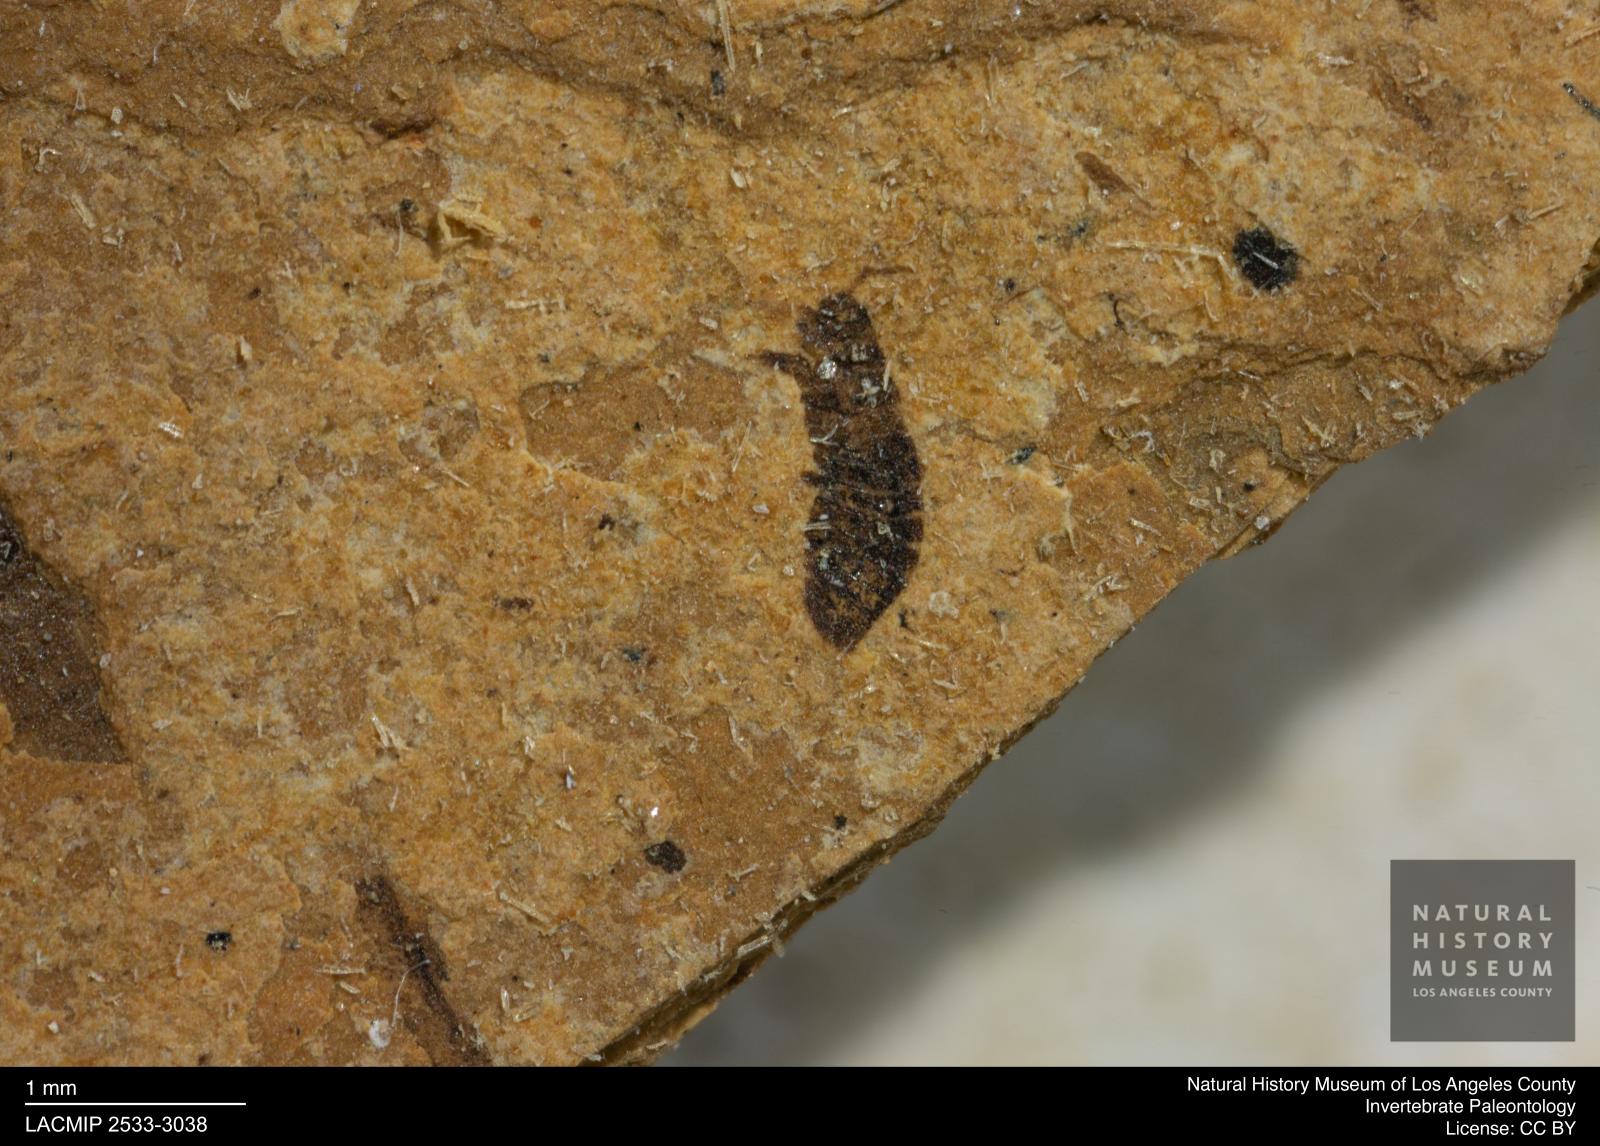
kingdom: Animalia
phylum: Arthropoda
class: Insecta
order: Thysanoptera
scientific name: Thysanoptera
